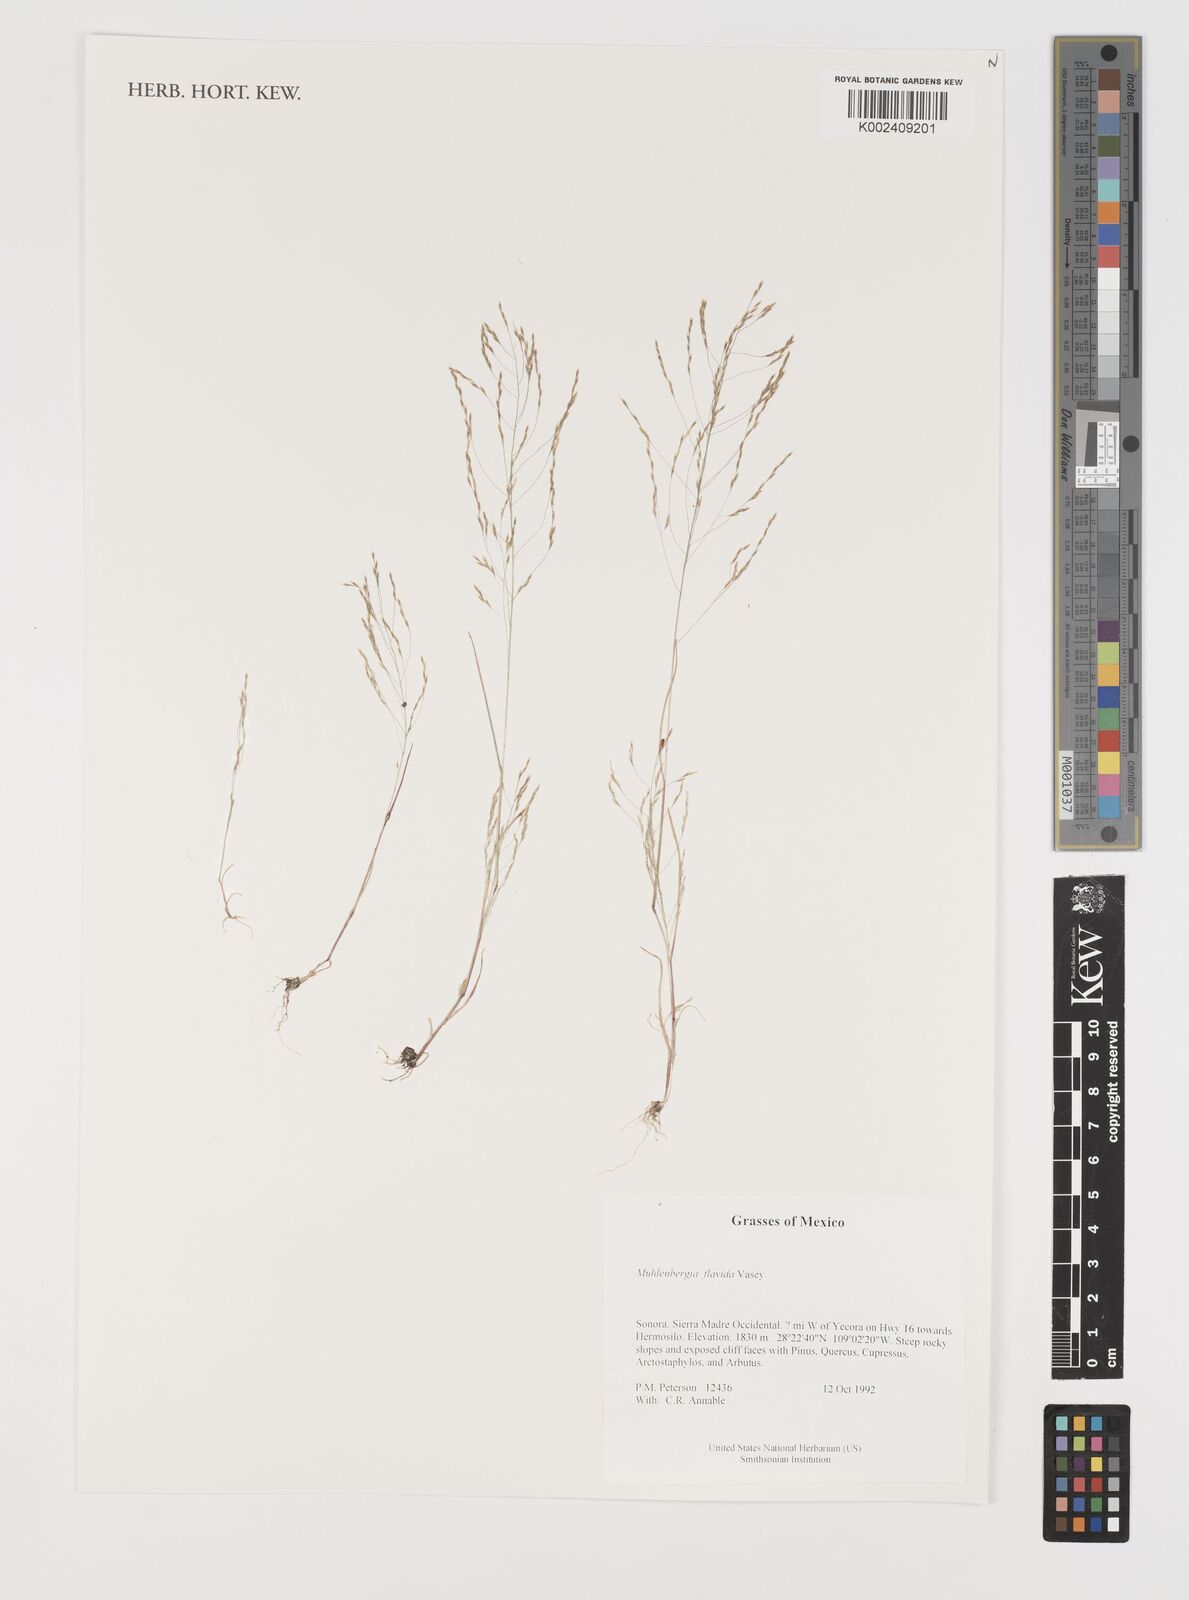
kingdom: Plantae
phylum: Tracheophyta
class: Liliopsida
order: Poales
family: Poaceae
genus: Muhlenbergia
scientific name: Muhlenbergia flavida
